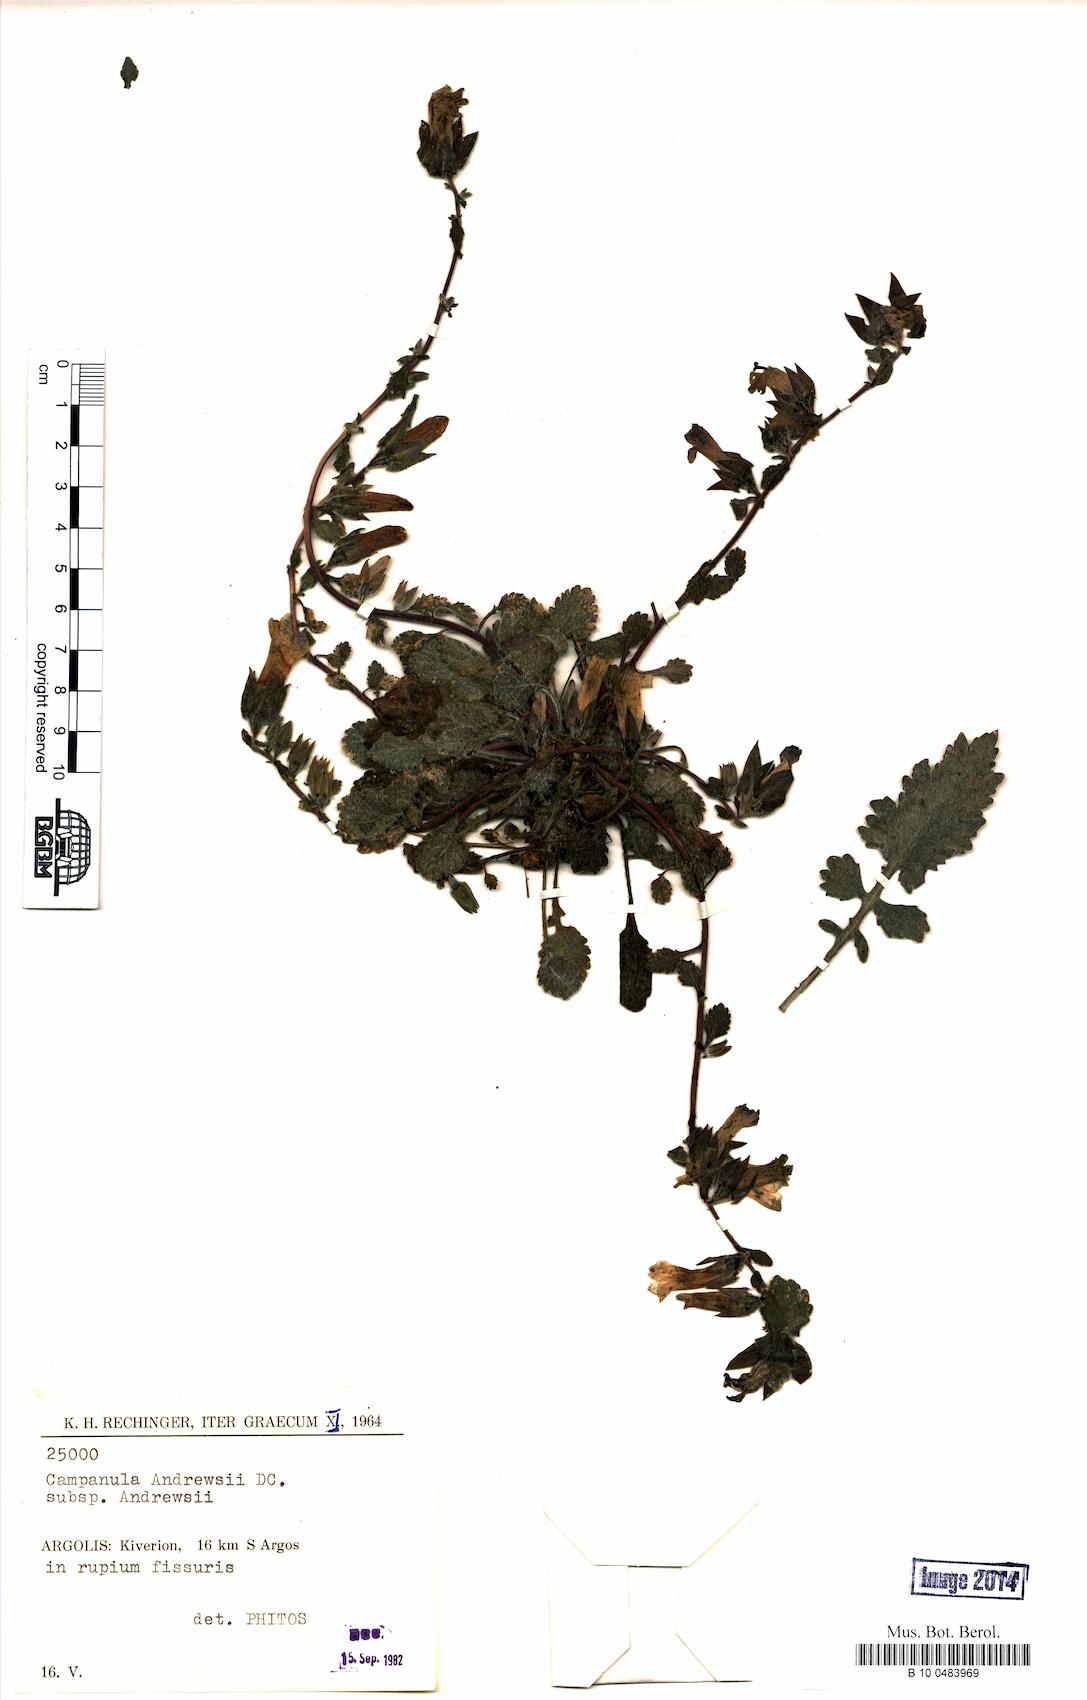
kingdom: Plantae
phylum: Tracheophyta
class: Magnoliopsida
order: Asterales
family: Campanulaceae
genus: Campanula
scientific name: Campanula andrewsii
